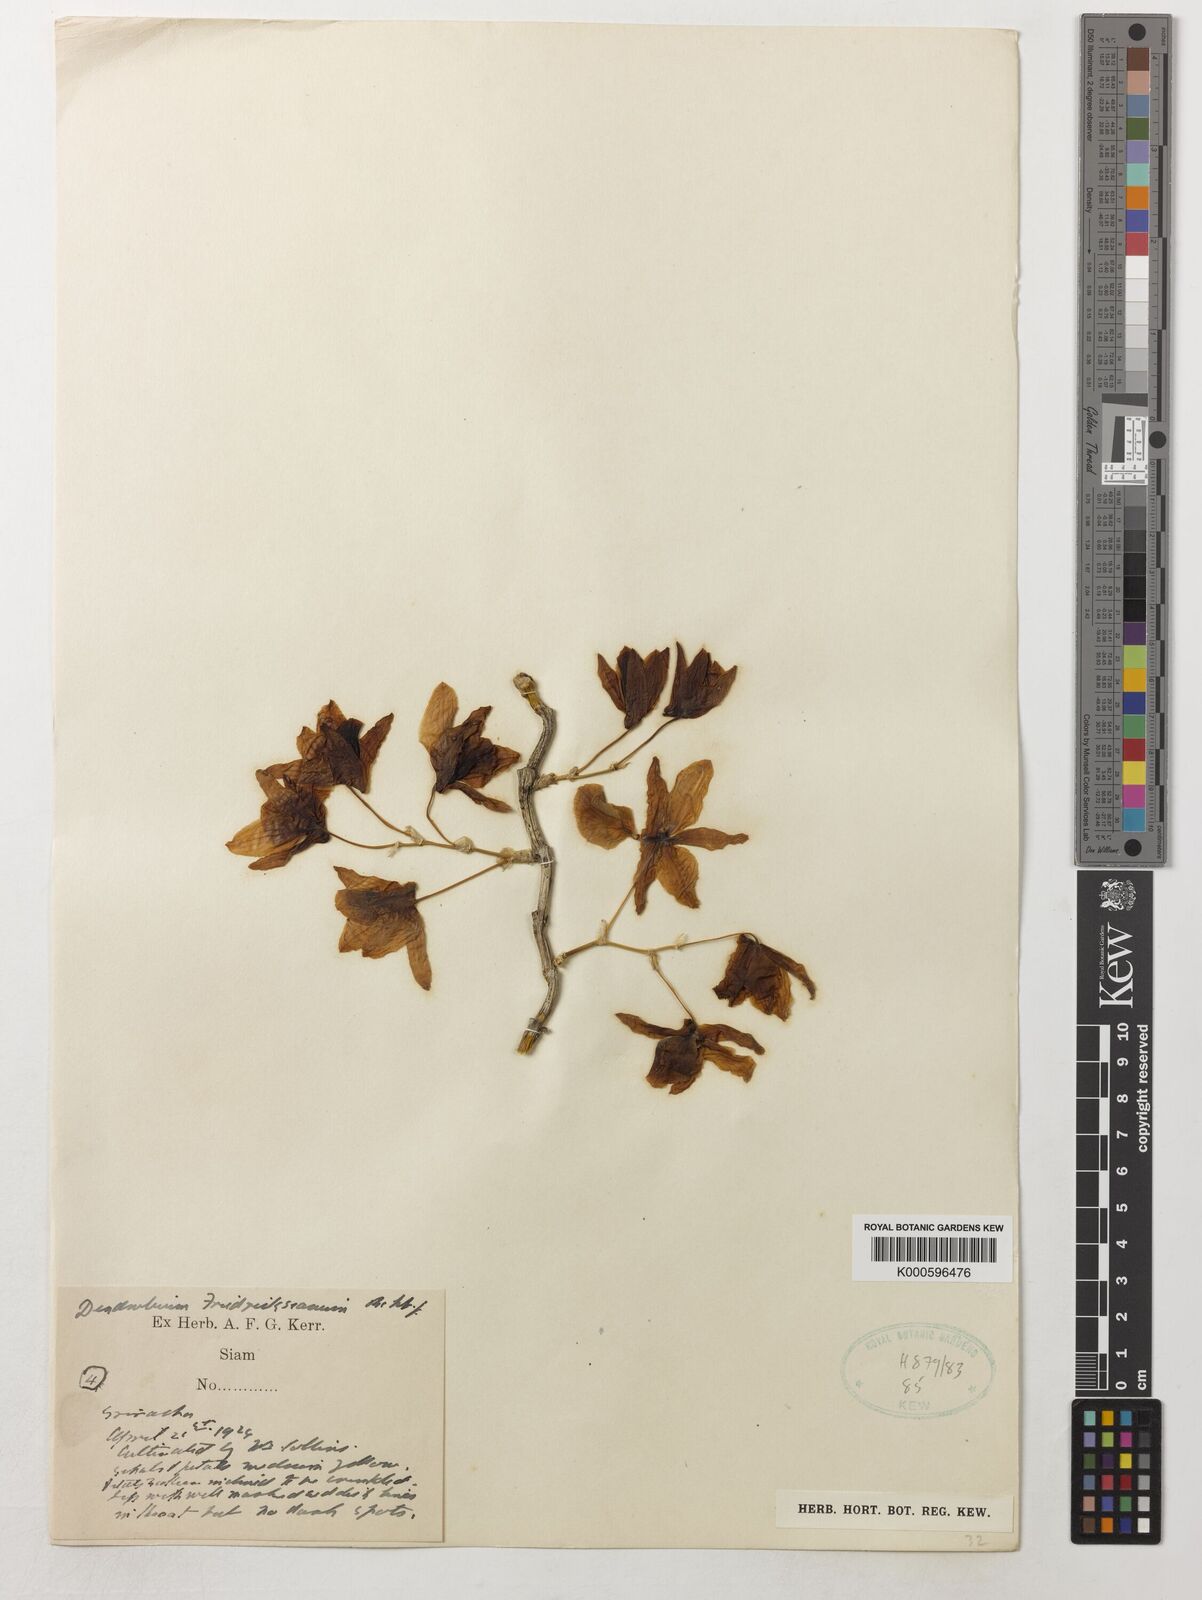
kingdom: Plantae
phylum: Tracheophyta
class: Liliopsida
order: Asparagales
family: Orchidaceae
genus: Dendrobium
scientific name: Dendrobium friedericksianum
